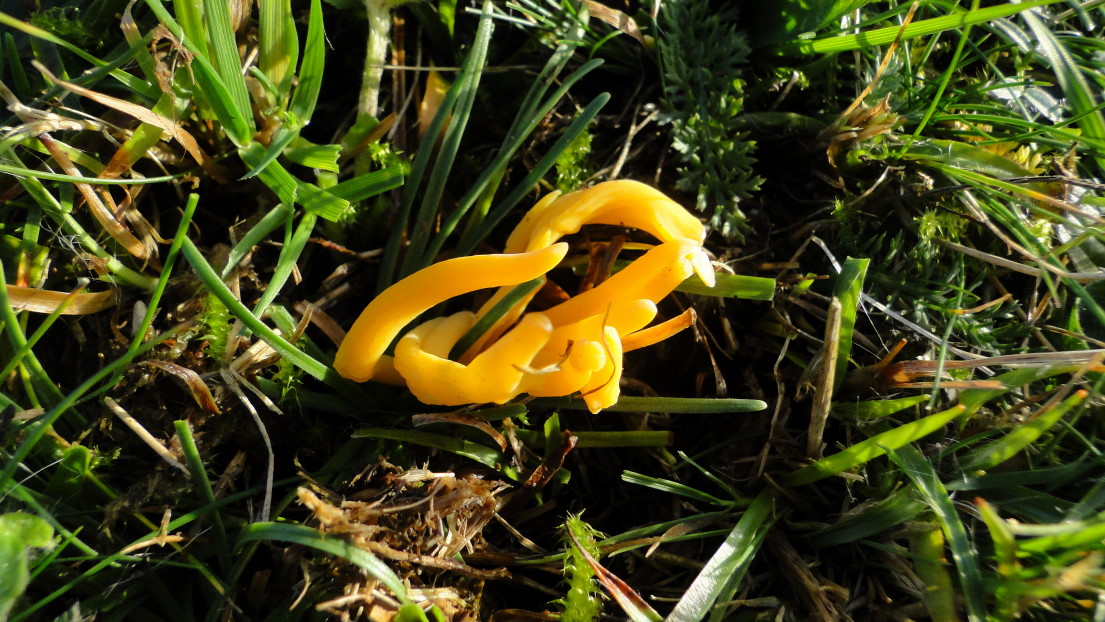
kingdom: Fungi
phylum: Basidiomycota
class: Agaricomycetes
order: Agaricales
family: Clavariaceae
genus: Clavulinopsis
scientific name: Clavulinopsis luteoalba
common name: abrikos-køllesvamp
